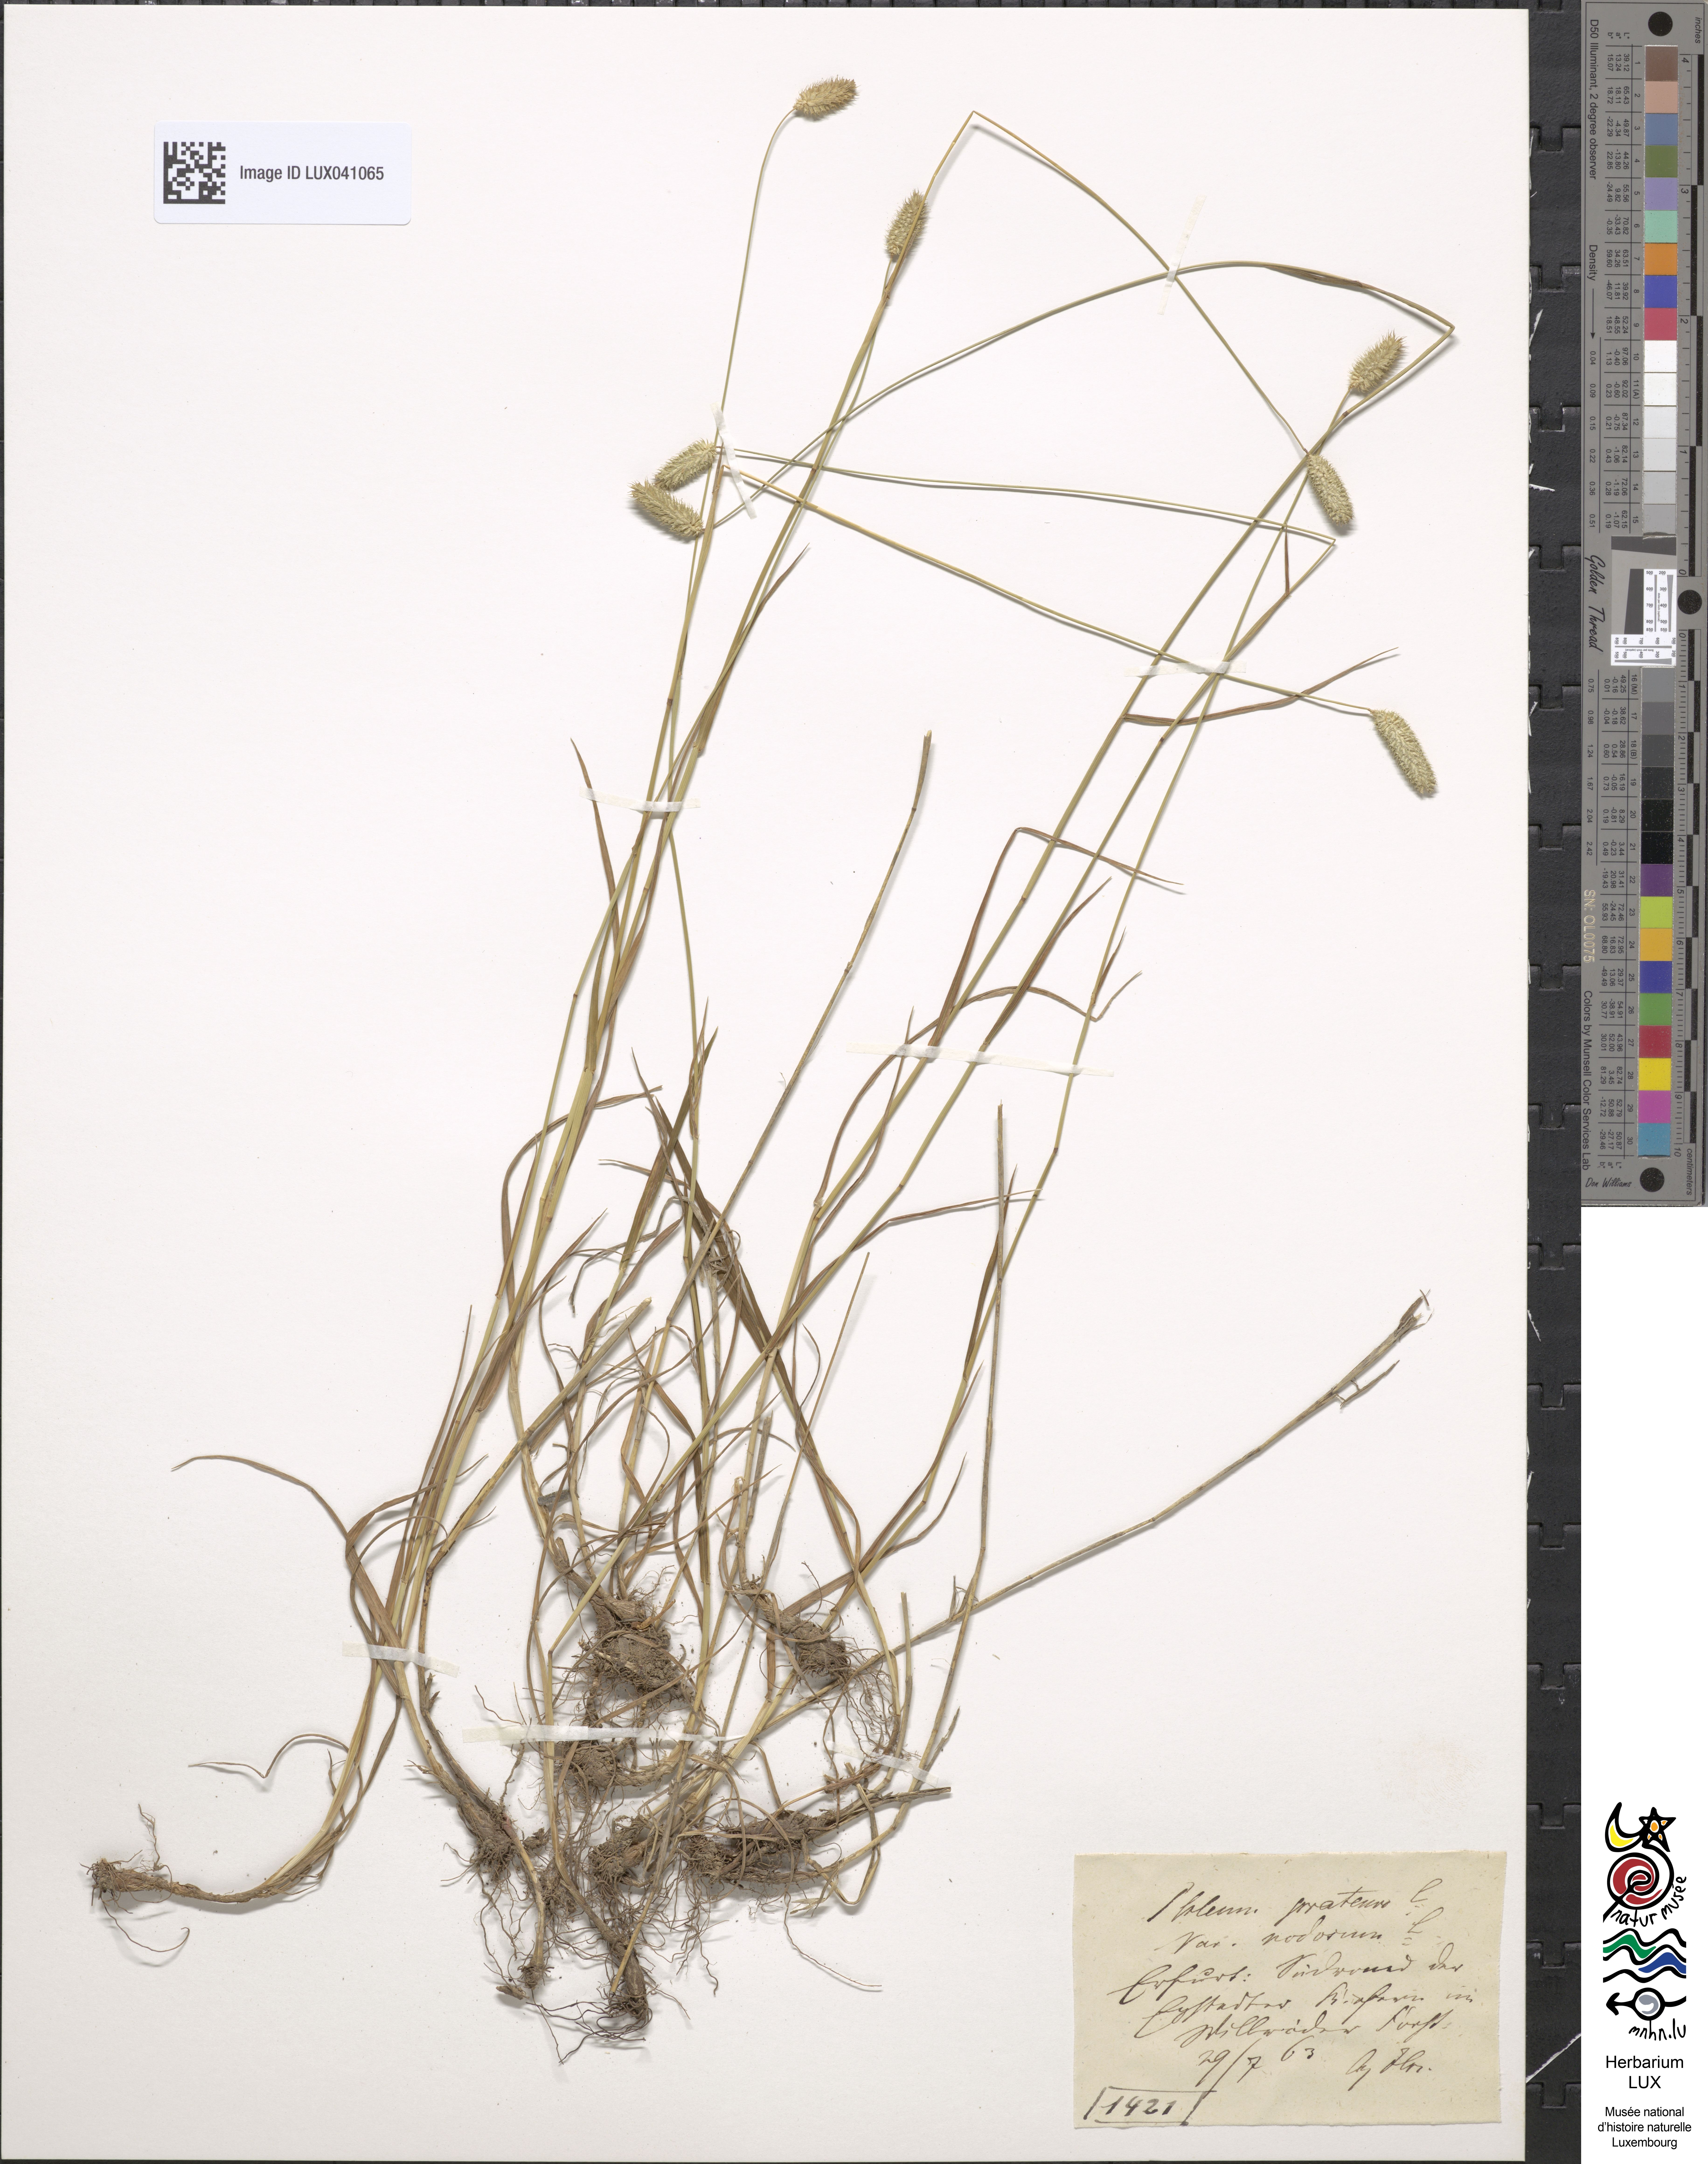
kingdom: Plantae
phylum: Tracheophyta
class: Liliopsida
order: Poales
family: Poaceae
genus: Phleum
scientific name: Phleum pratense
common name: Timothy grass
